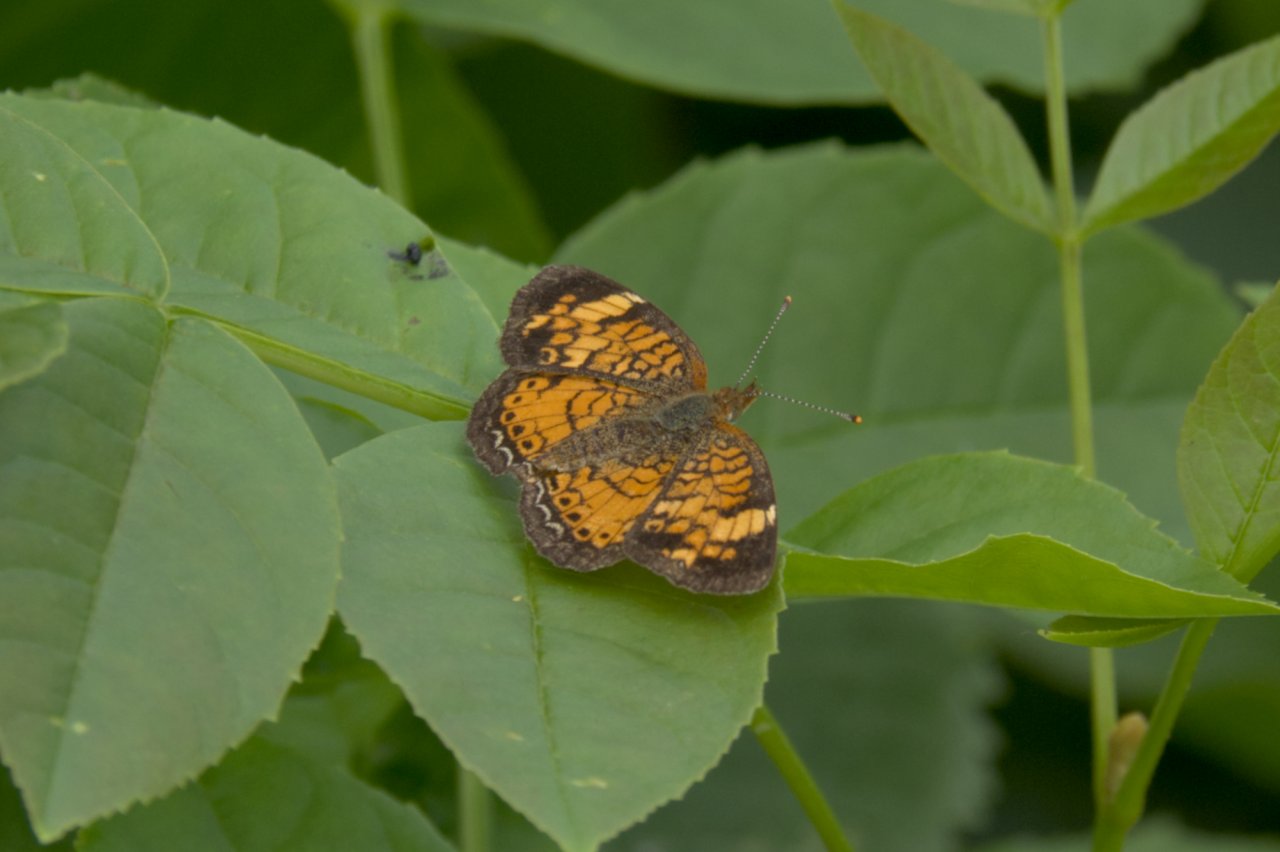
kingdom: Animalia
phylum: Arthropoda
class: Insecta
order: Lepidoptera
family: Nymphalidae
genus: Phyciodes
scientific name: Phyciodes tharos
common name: Pearl Crescent
